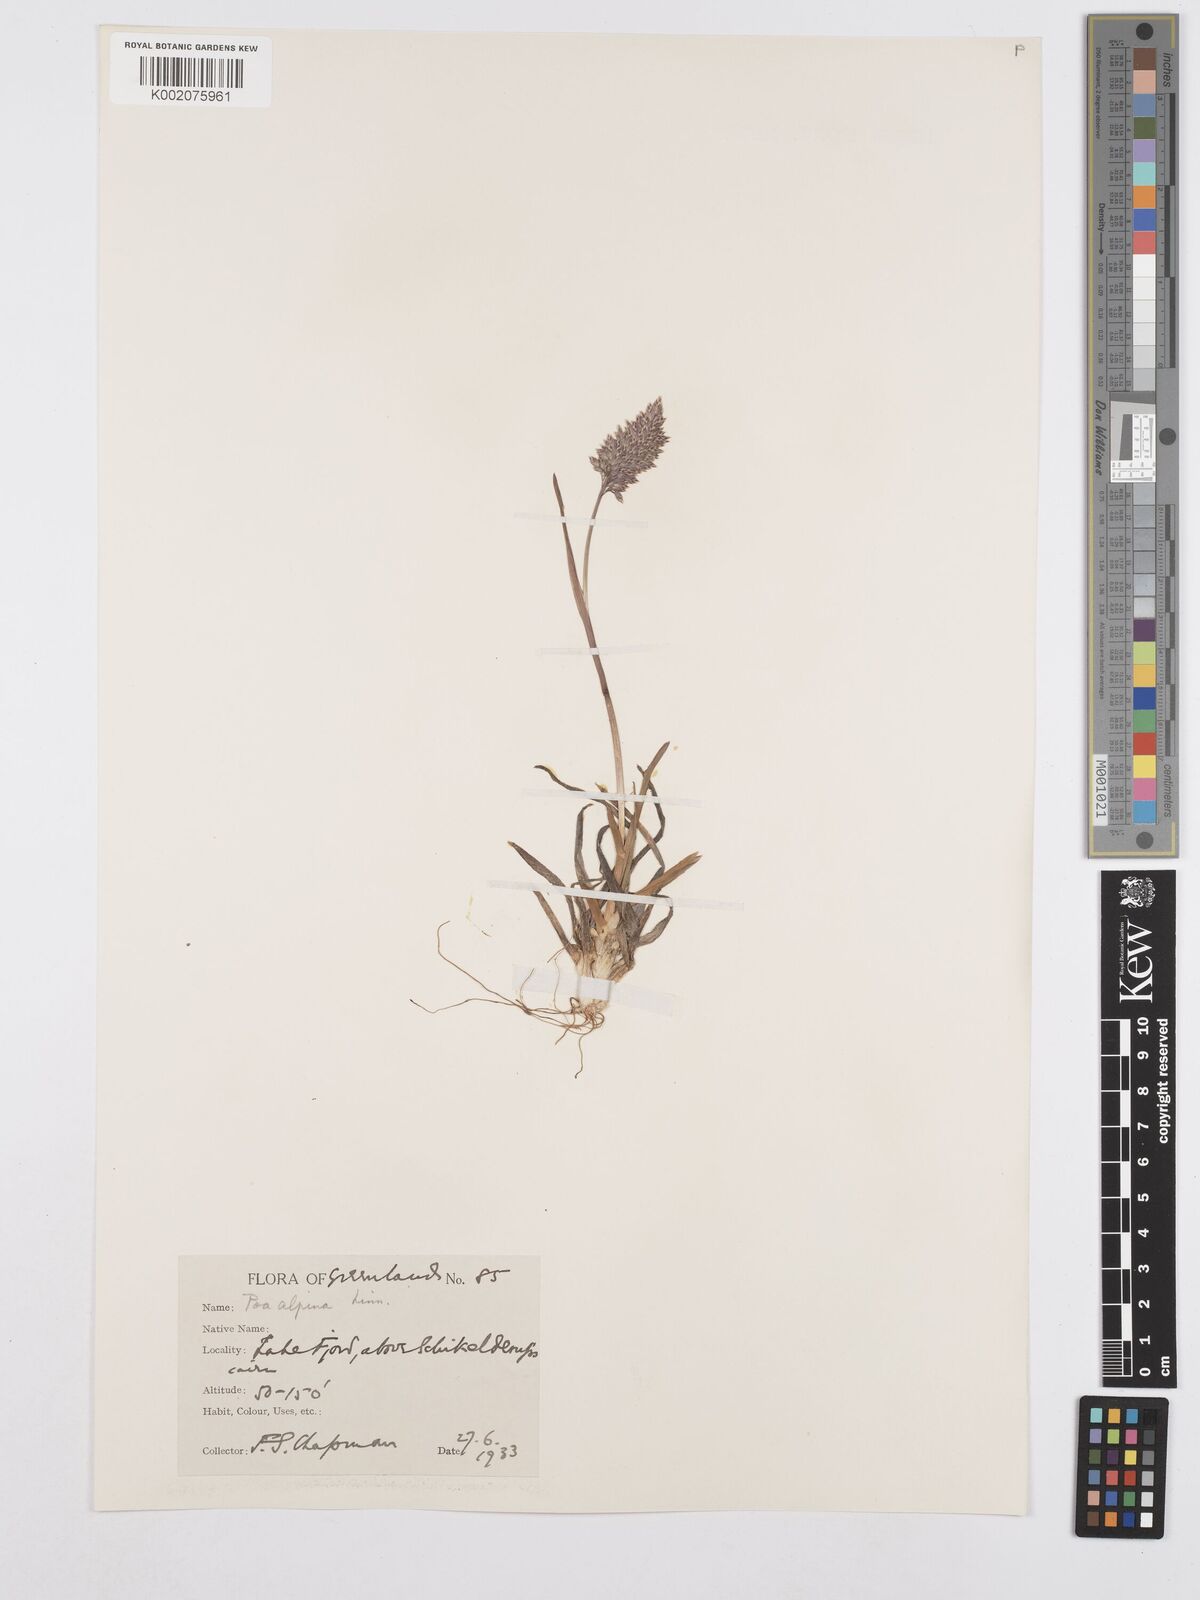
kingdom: Plantae
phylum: Tracheophyta
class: Liliopsida
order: Poales
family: Poaceae
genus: Poa
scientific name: Poa alpina
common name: Alpine bluegrass
